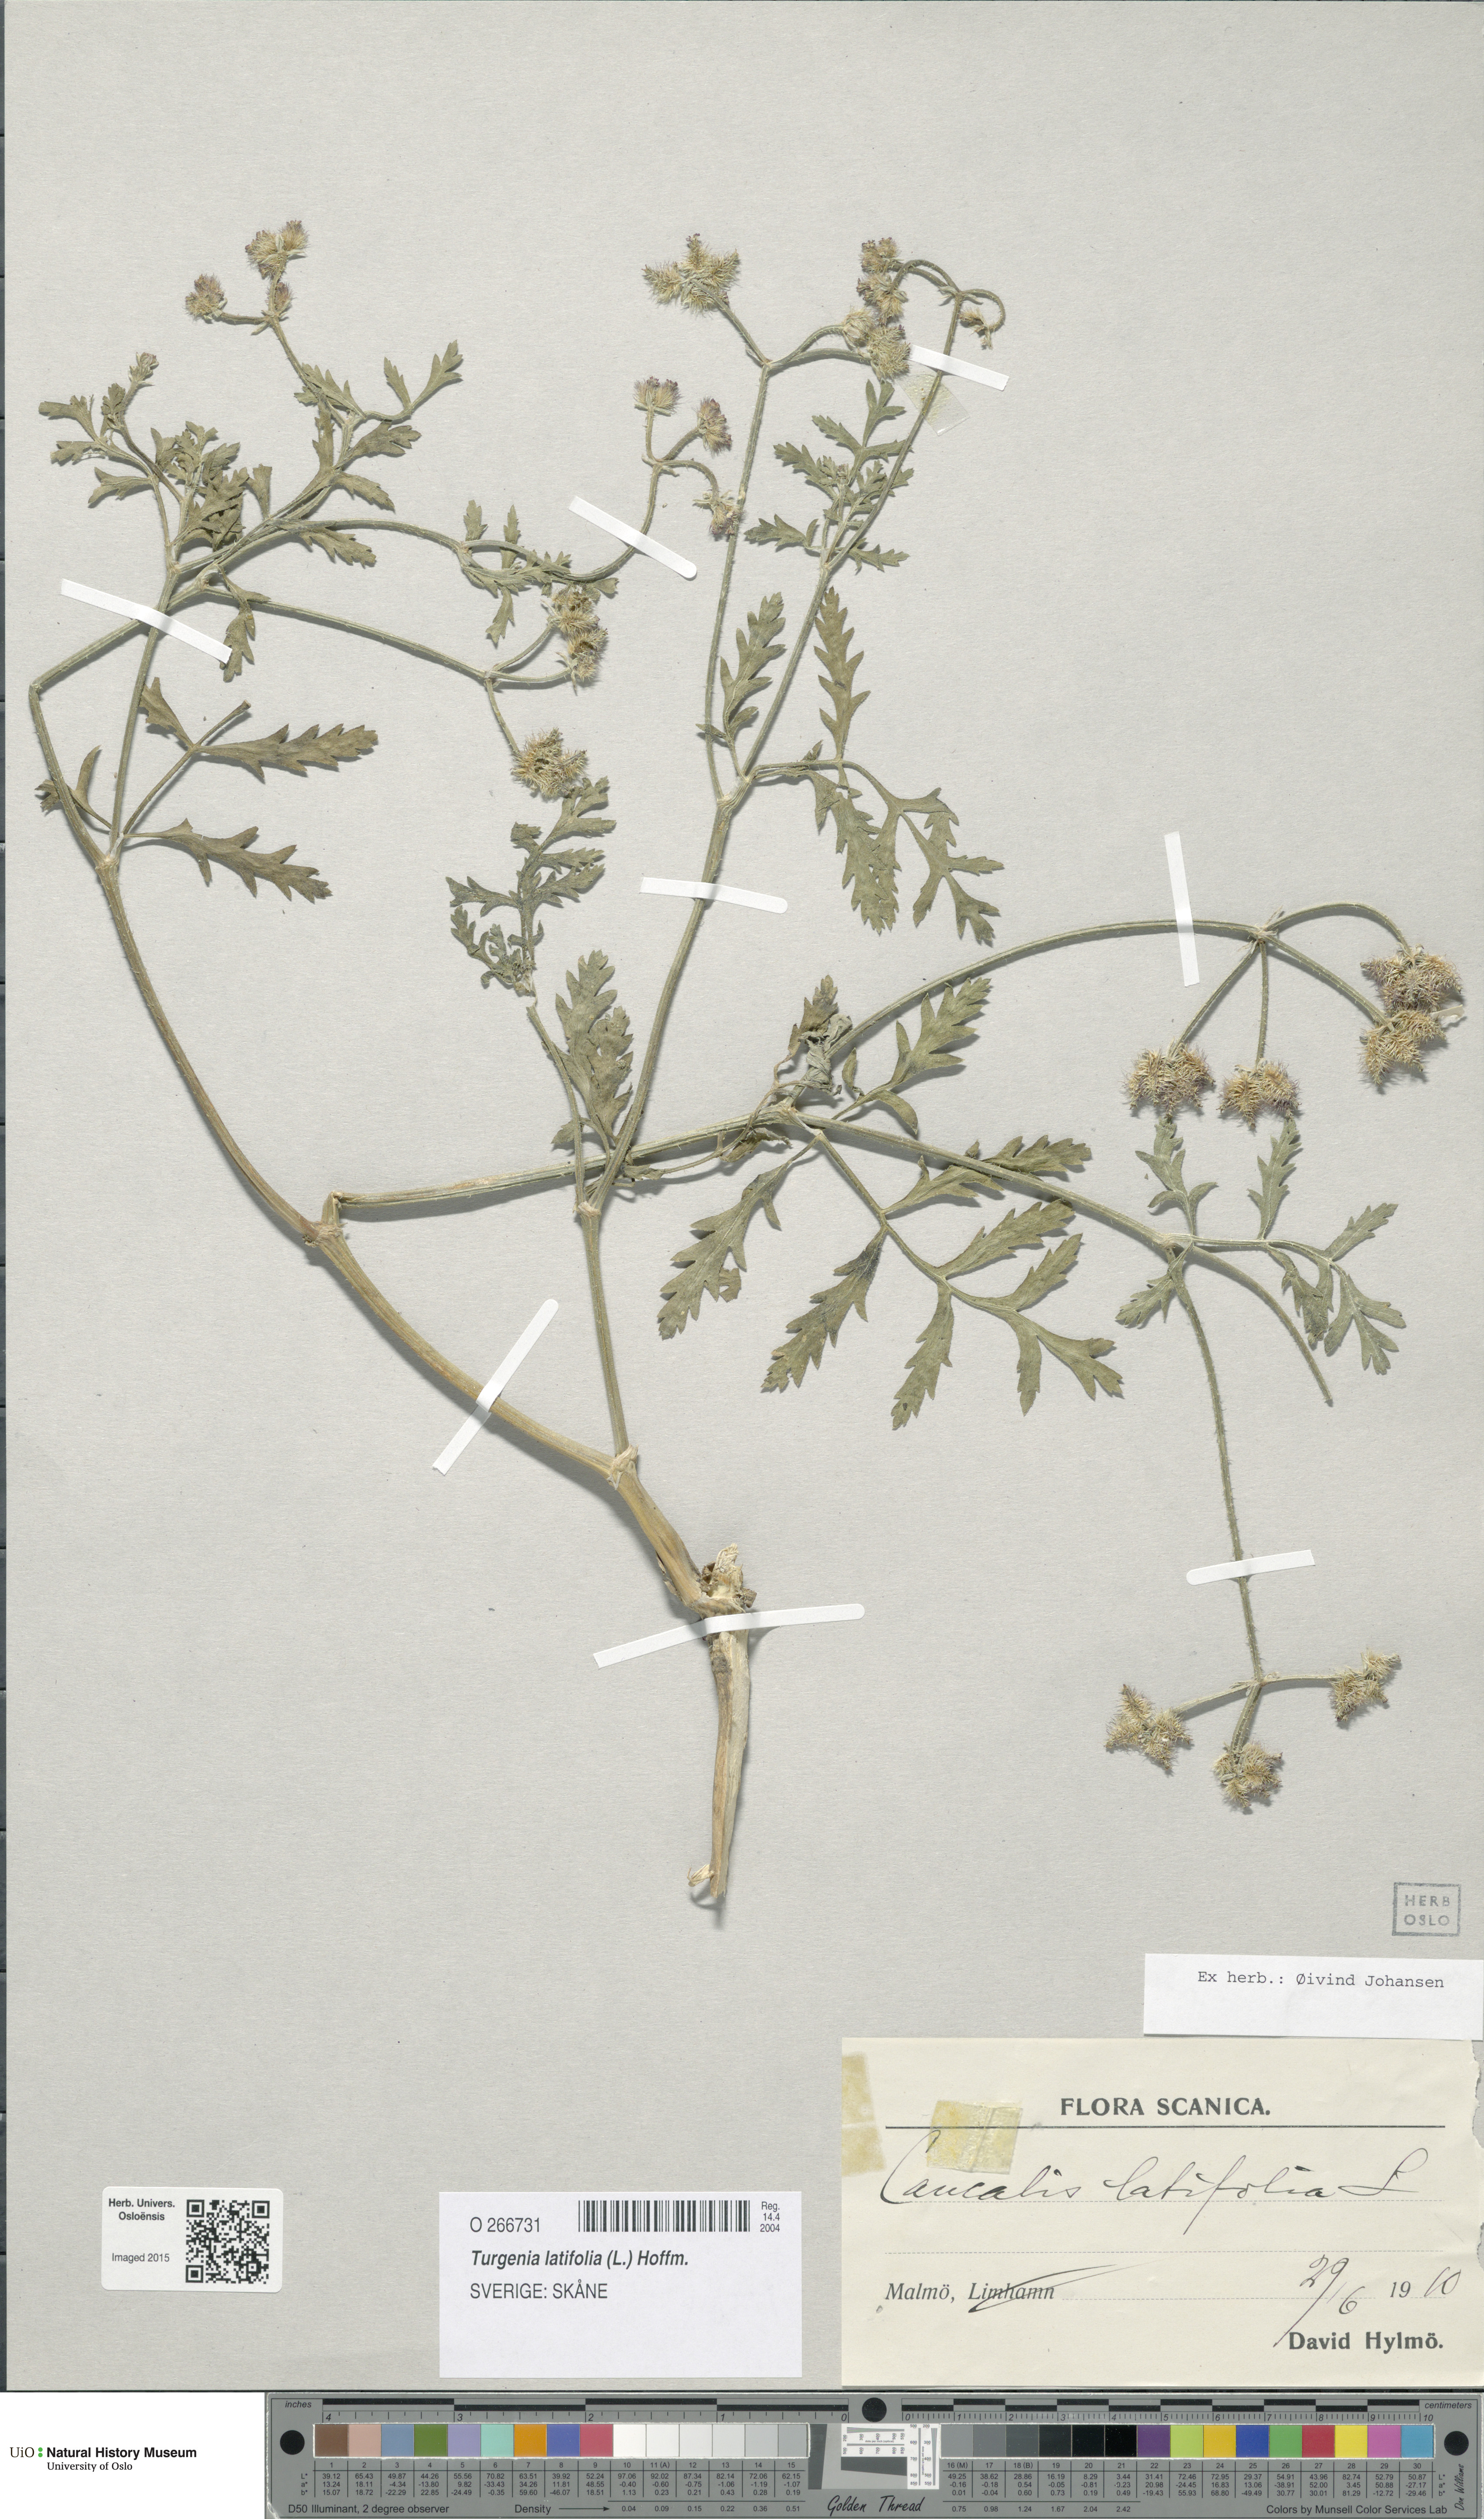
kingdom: Plantae
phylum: Tracheophyta
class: Magnoliopsida
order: Apiales
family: Apiaceae
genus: Turgenia
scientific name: Turgenia latifolia
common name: Greater bur-parsley
